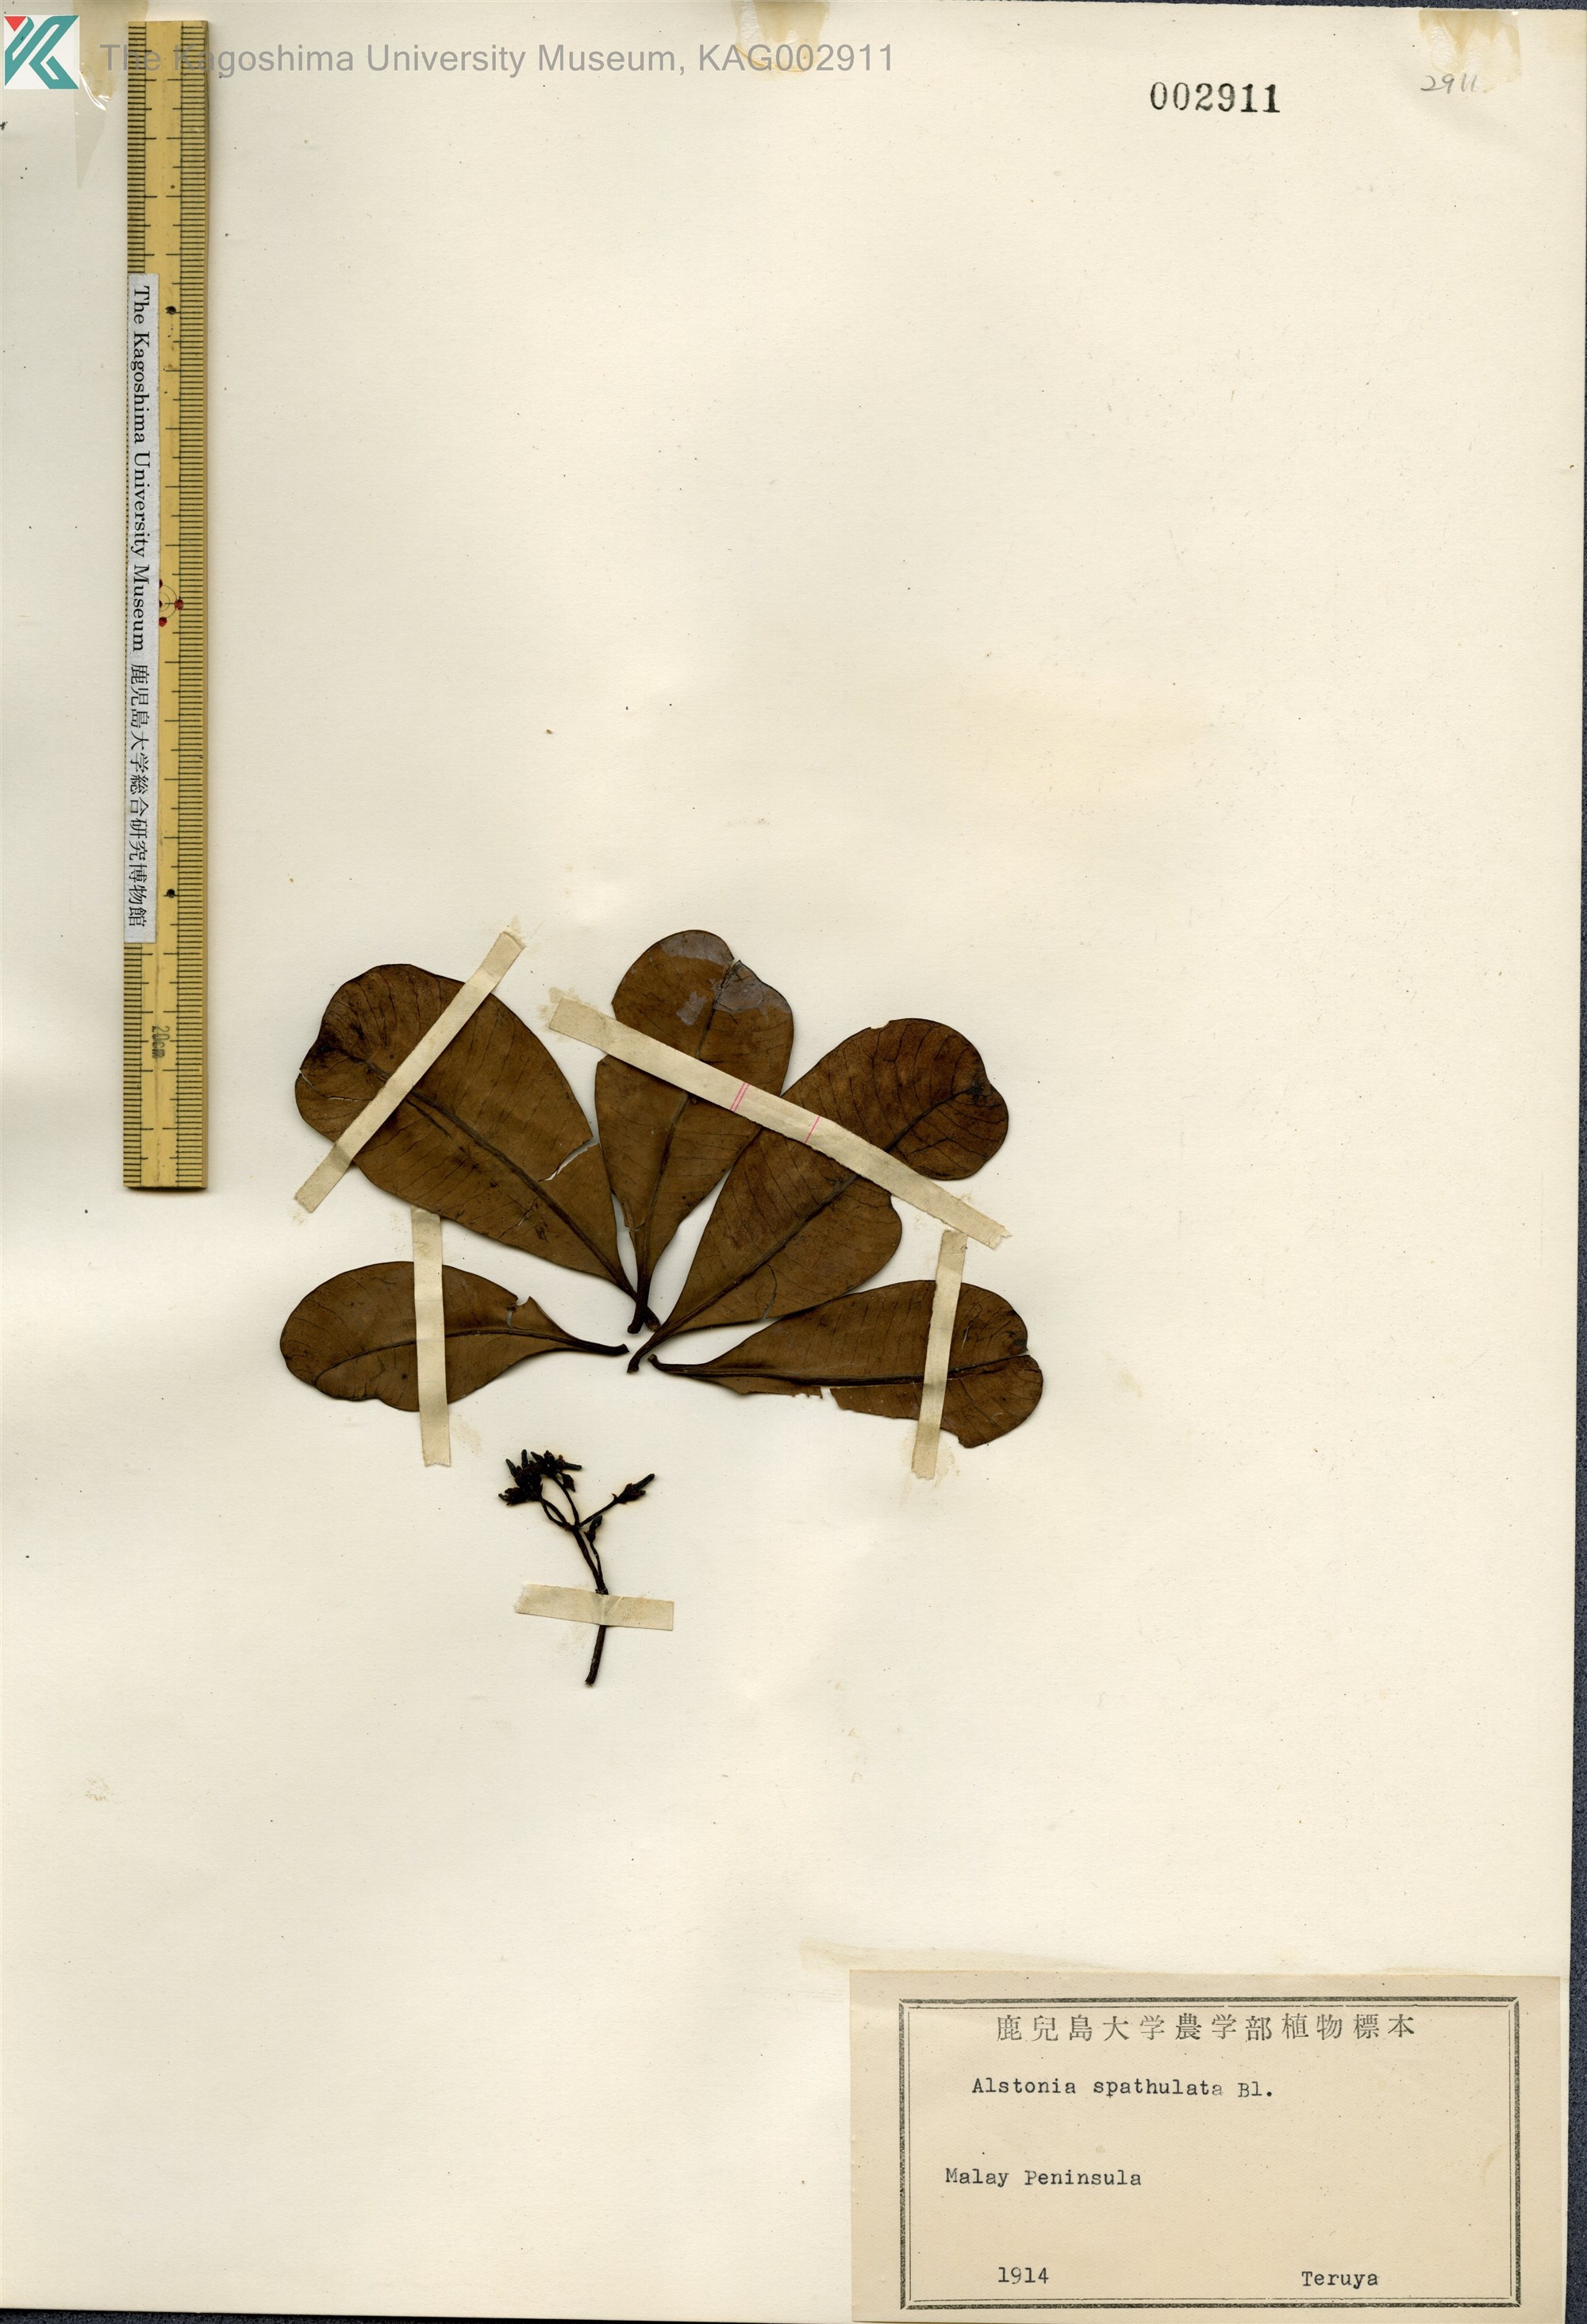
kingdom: Plantae
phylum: Tracheophyta
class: Magnoliopsida
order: Gentianales
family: Apocynaceae
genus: Alstonia
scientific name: Alstonia spatulata
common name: Hard milkwood
